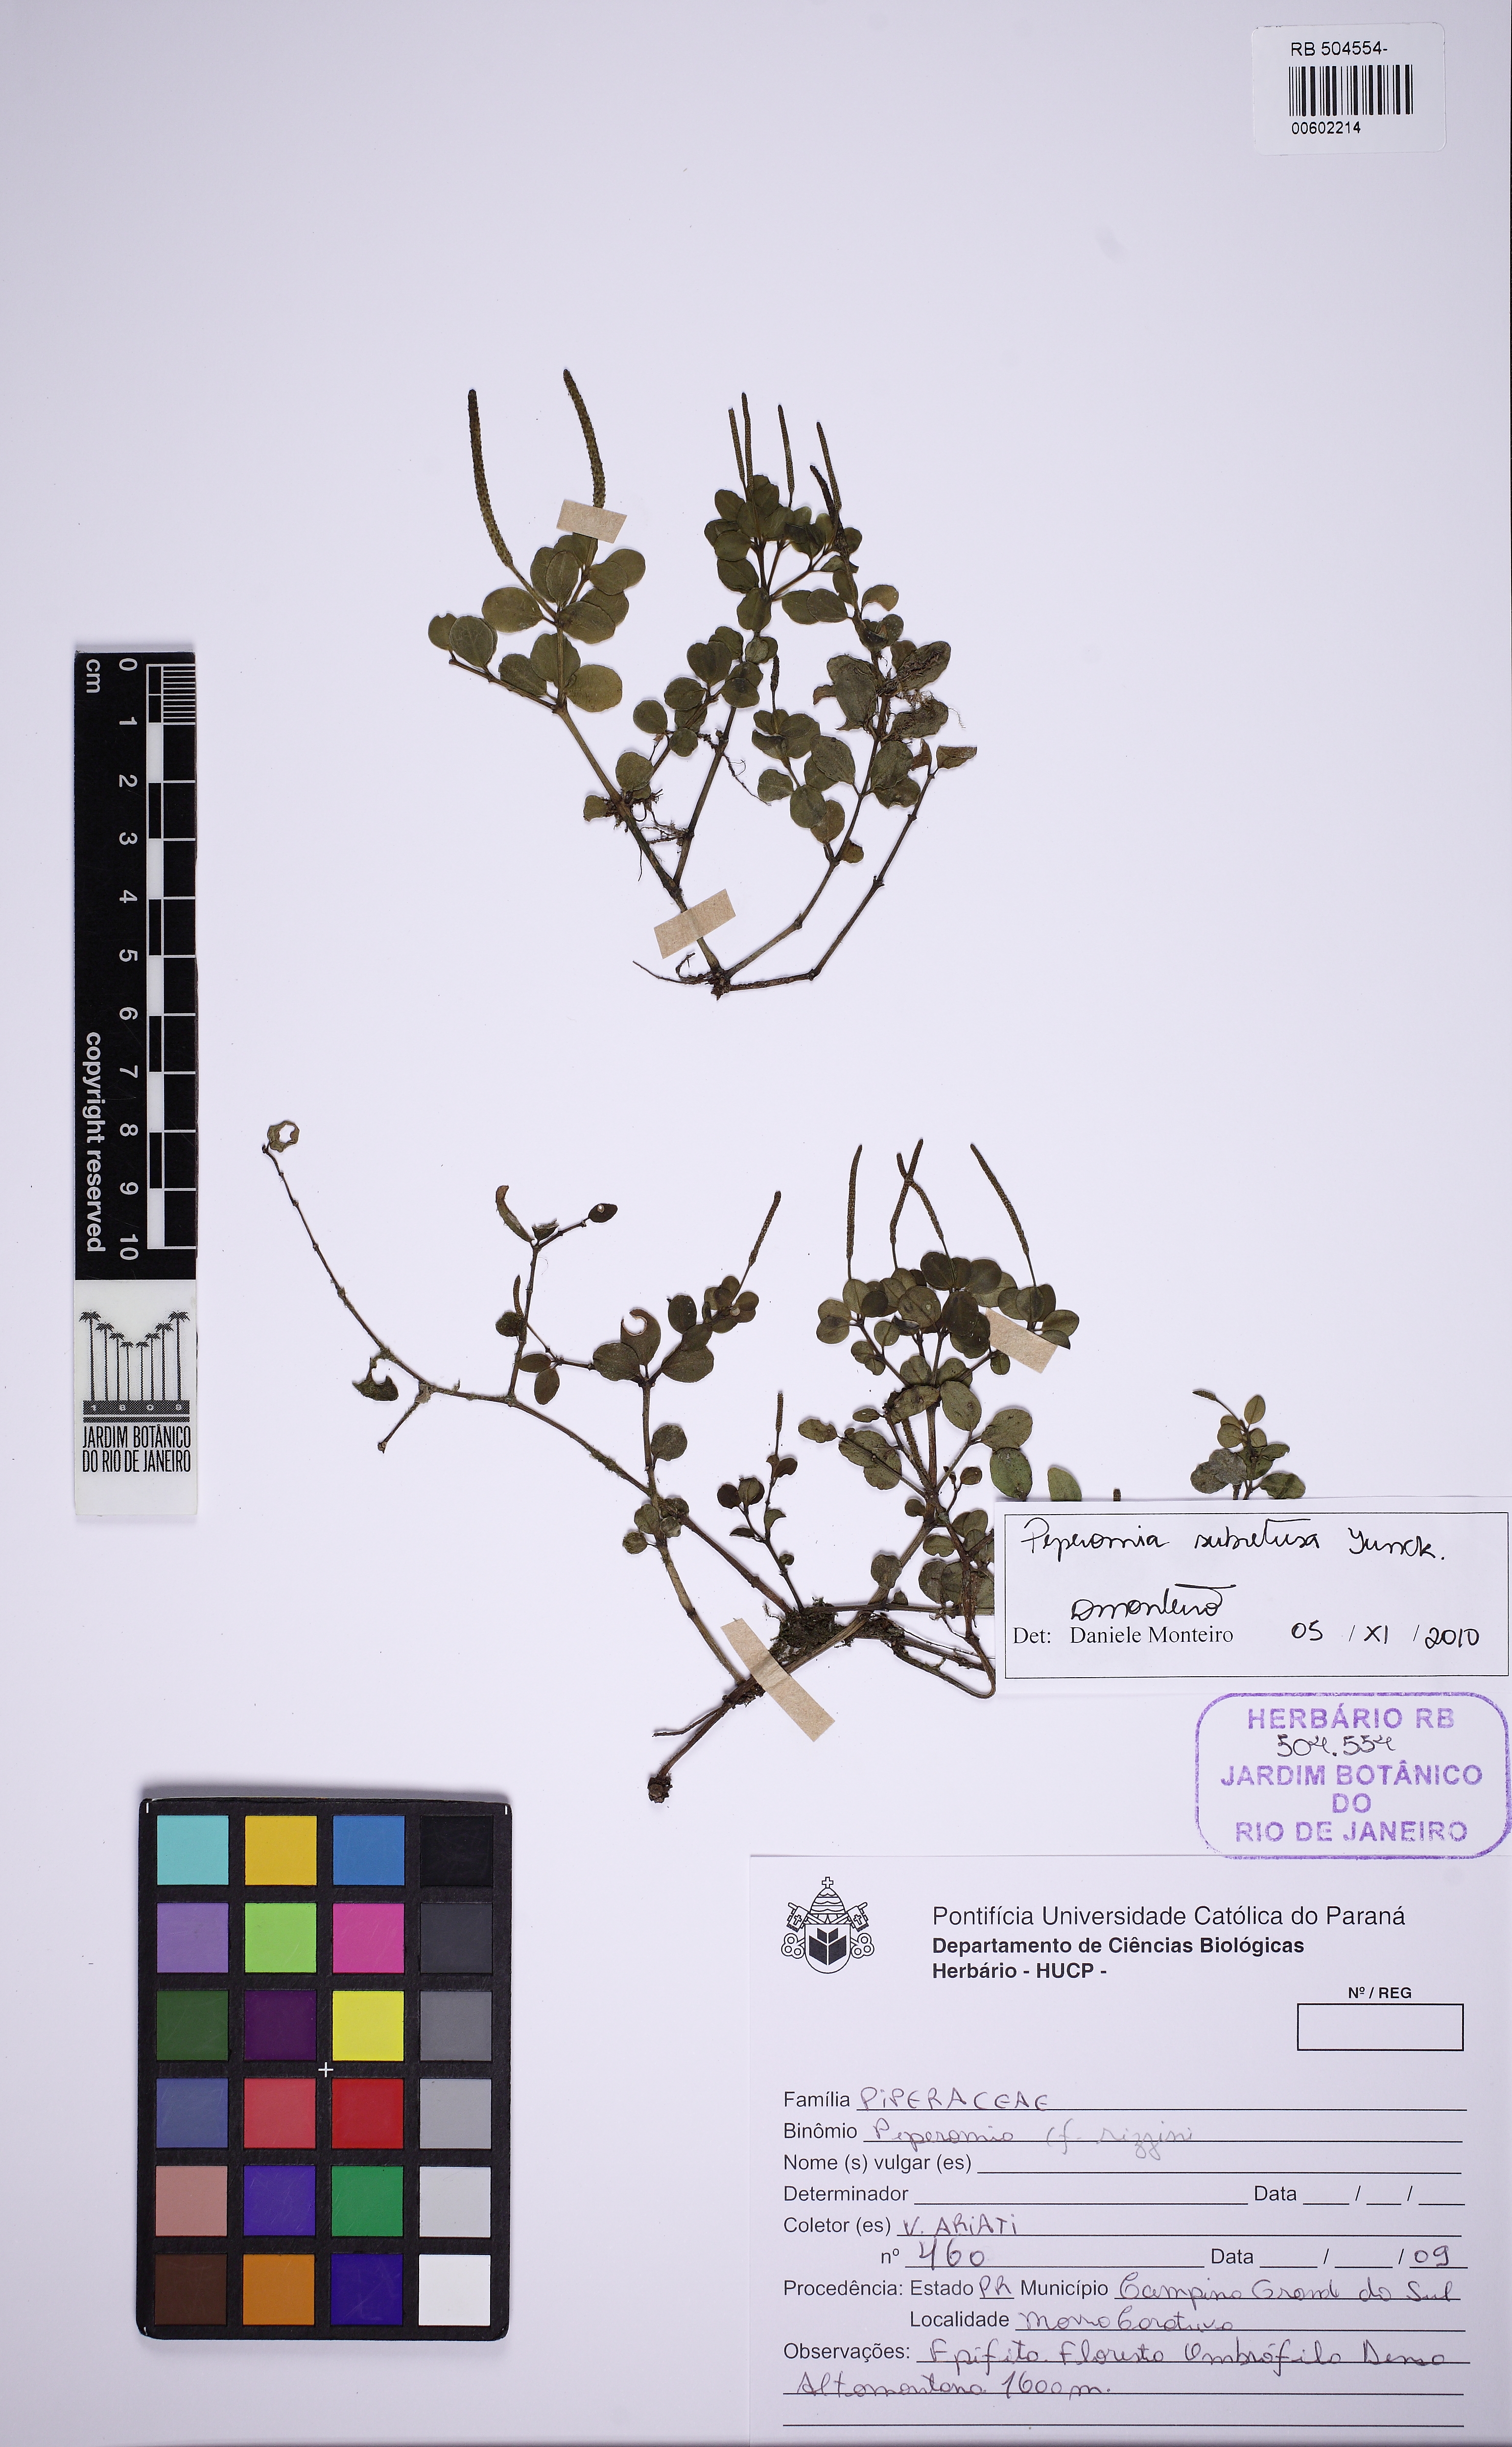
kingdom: Plantae
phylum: Tracheophyta
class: Magnoliopsida
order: Piperales
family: Piperaceae
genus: Peperomia
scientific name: Peperomia subretusa
